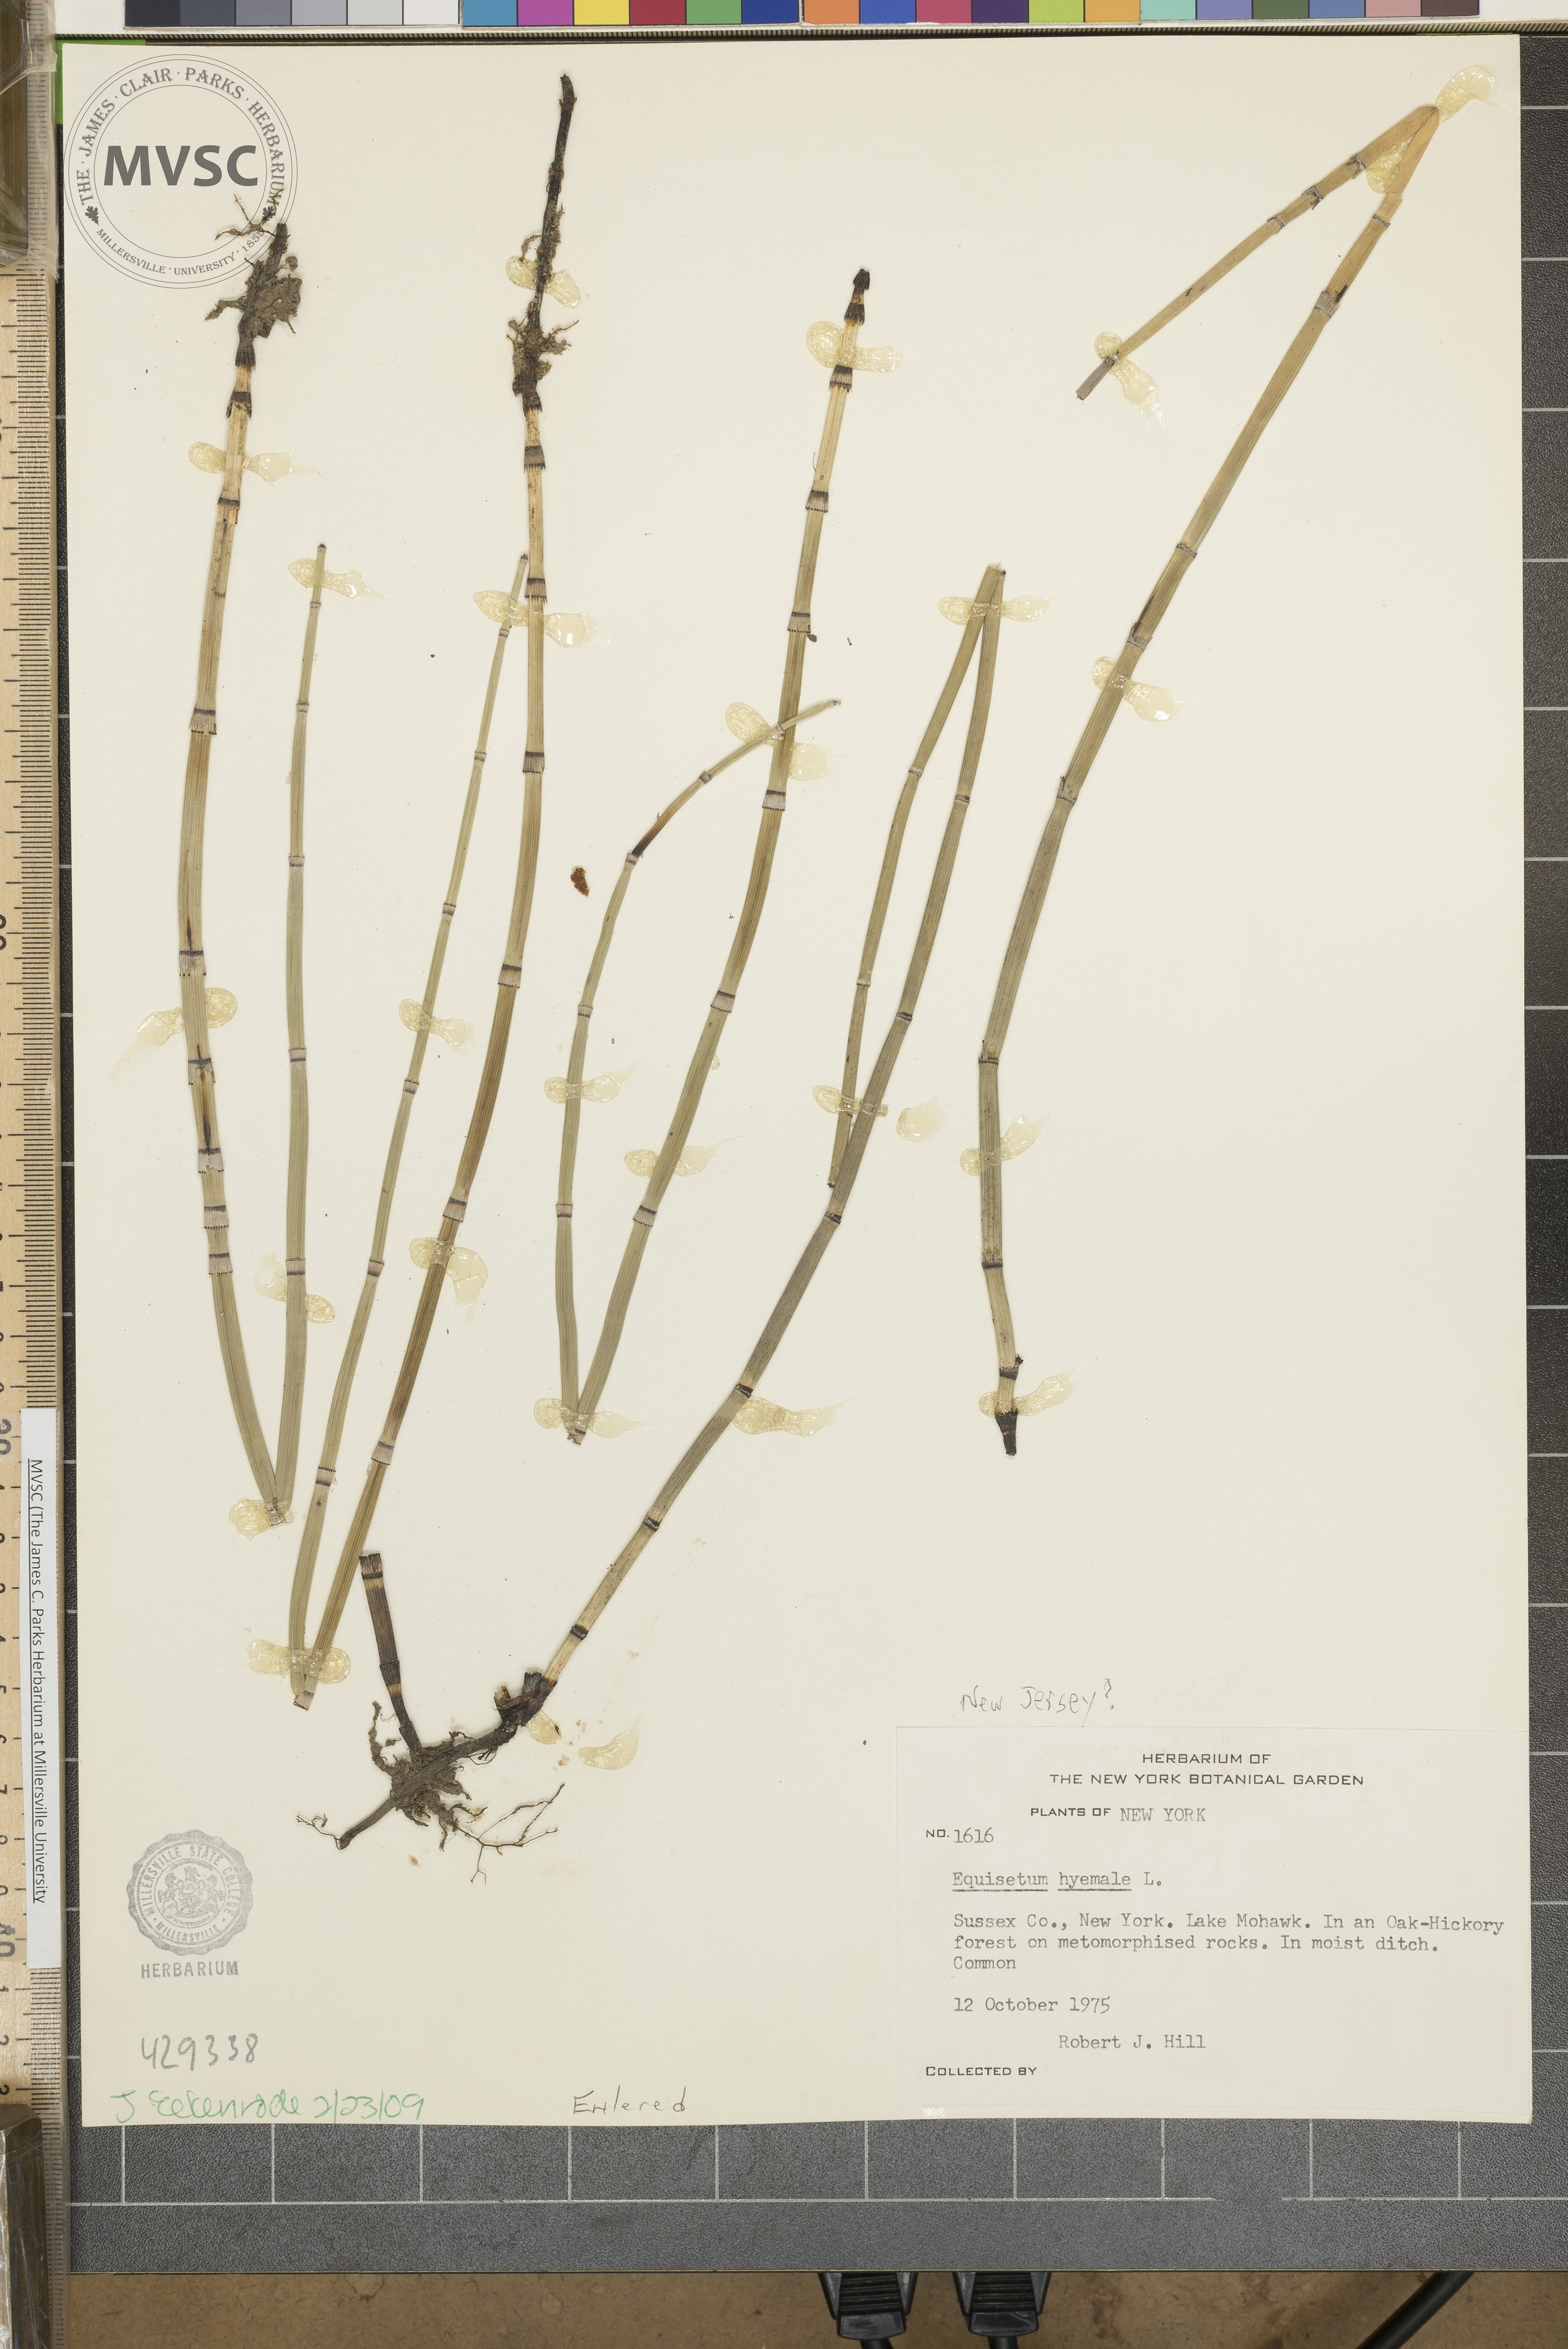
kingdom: Plantae
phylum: Tracheophyta
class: Polypodiopsida
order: Equisetales
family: Equisetaceae
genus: Equisetum
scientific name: Equisetum hyemale
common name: Rough horsetail
